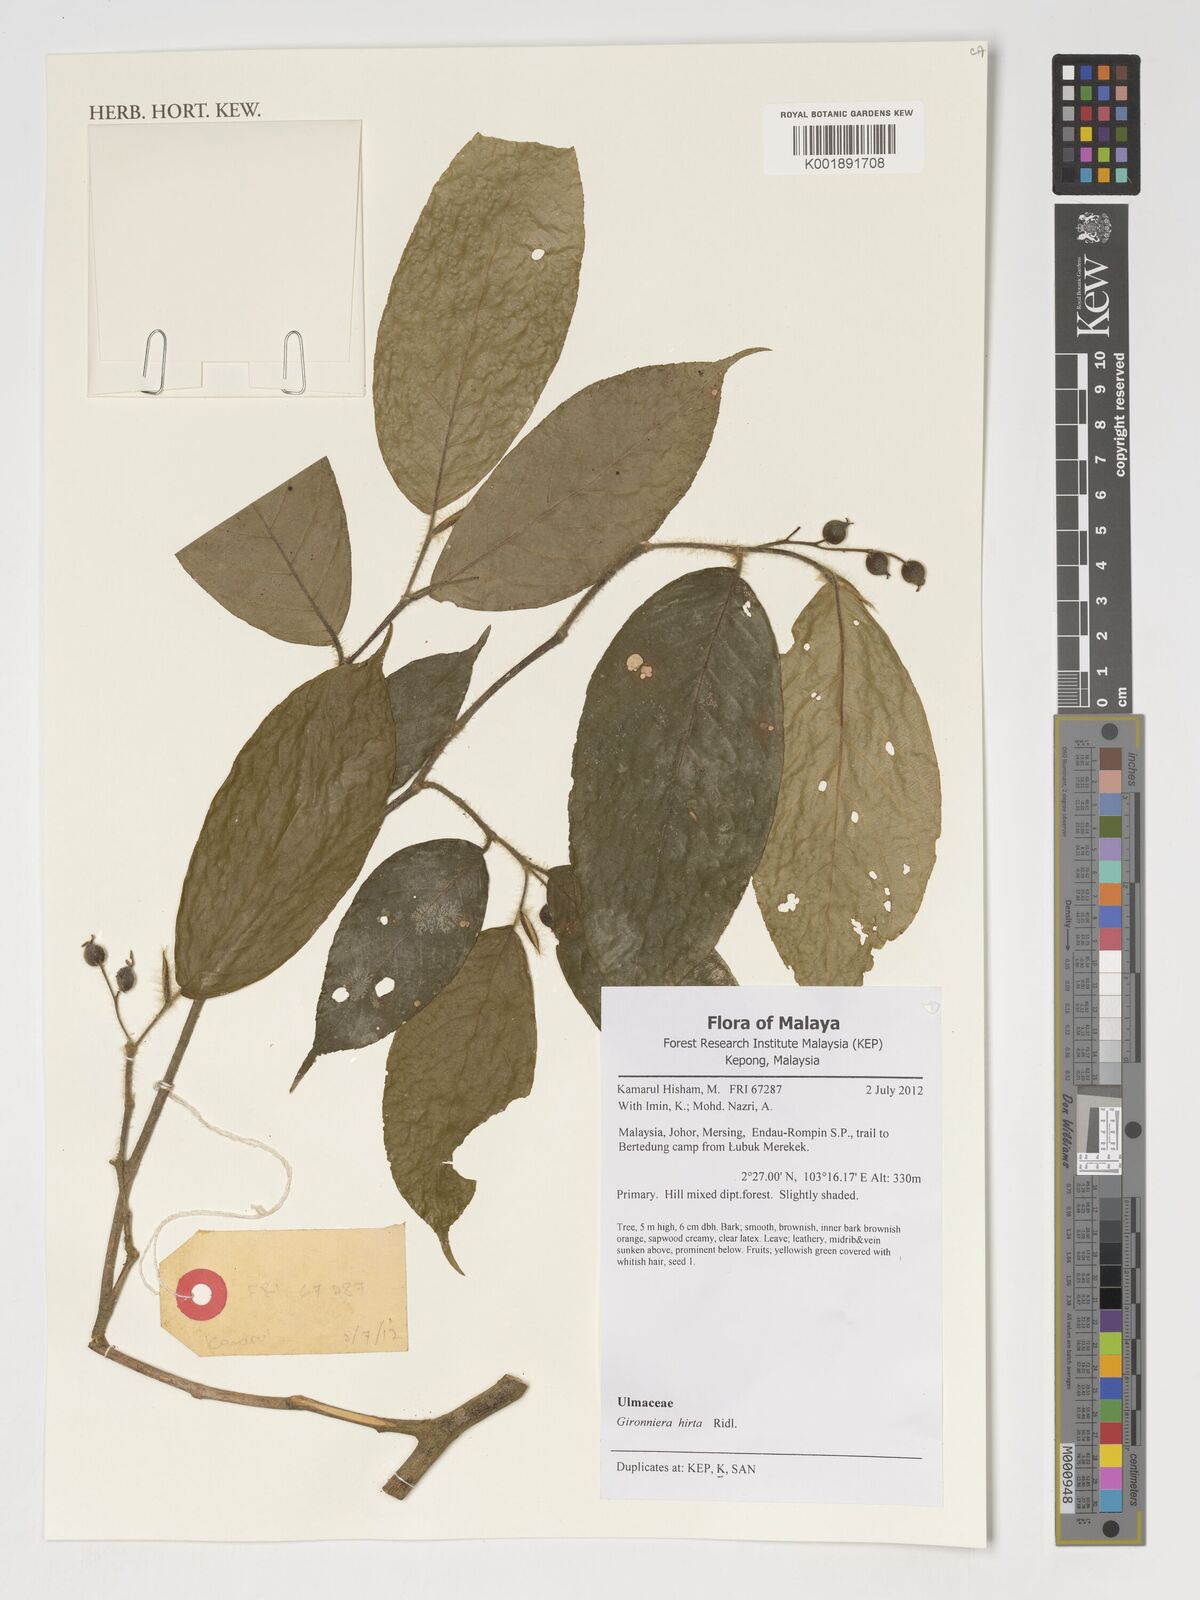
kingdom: Plantae
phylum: Tracheophyta
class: Magnoliopsida
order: Rosales
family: Cannabaceae
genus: Gironniera
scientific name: Gironniera hirta
